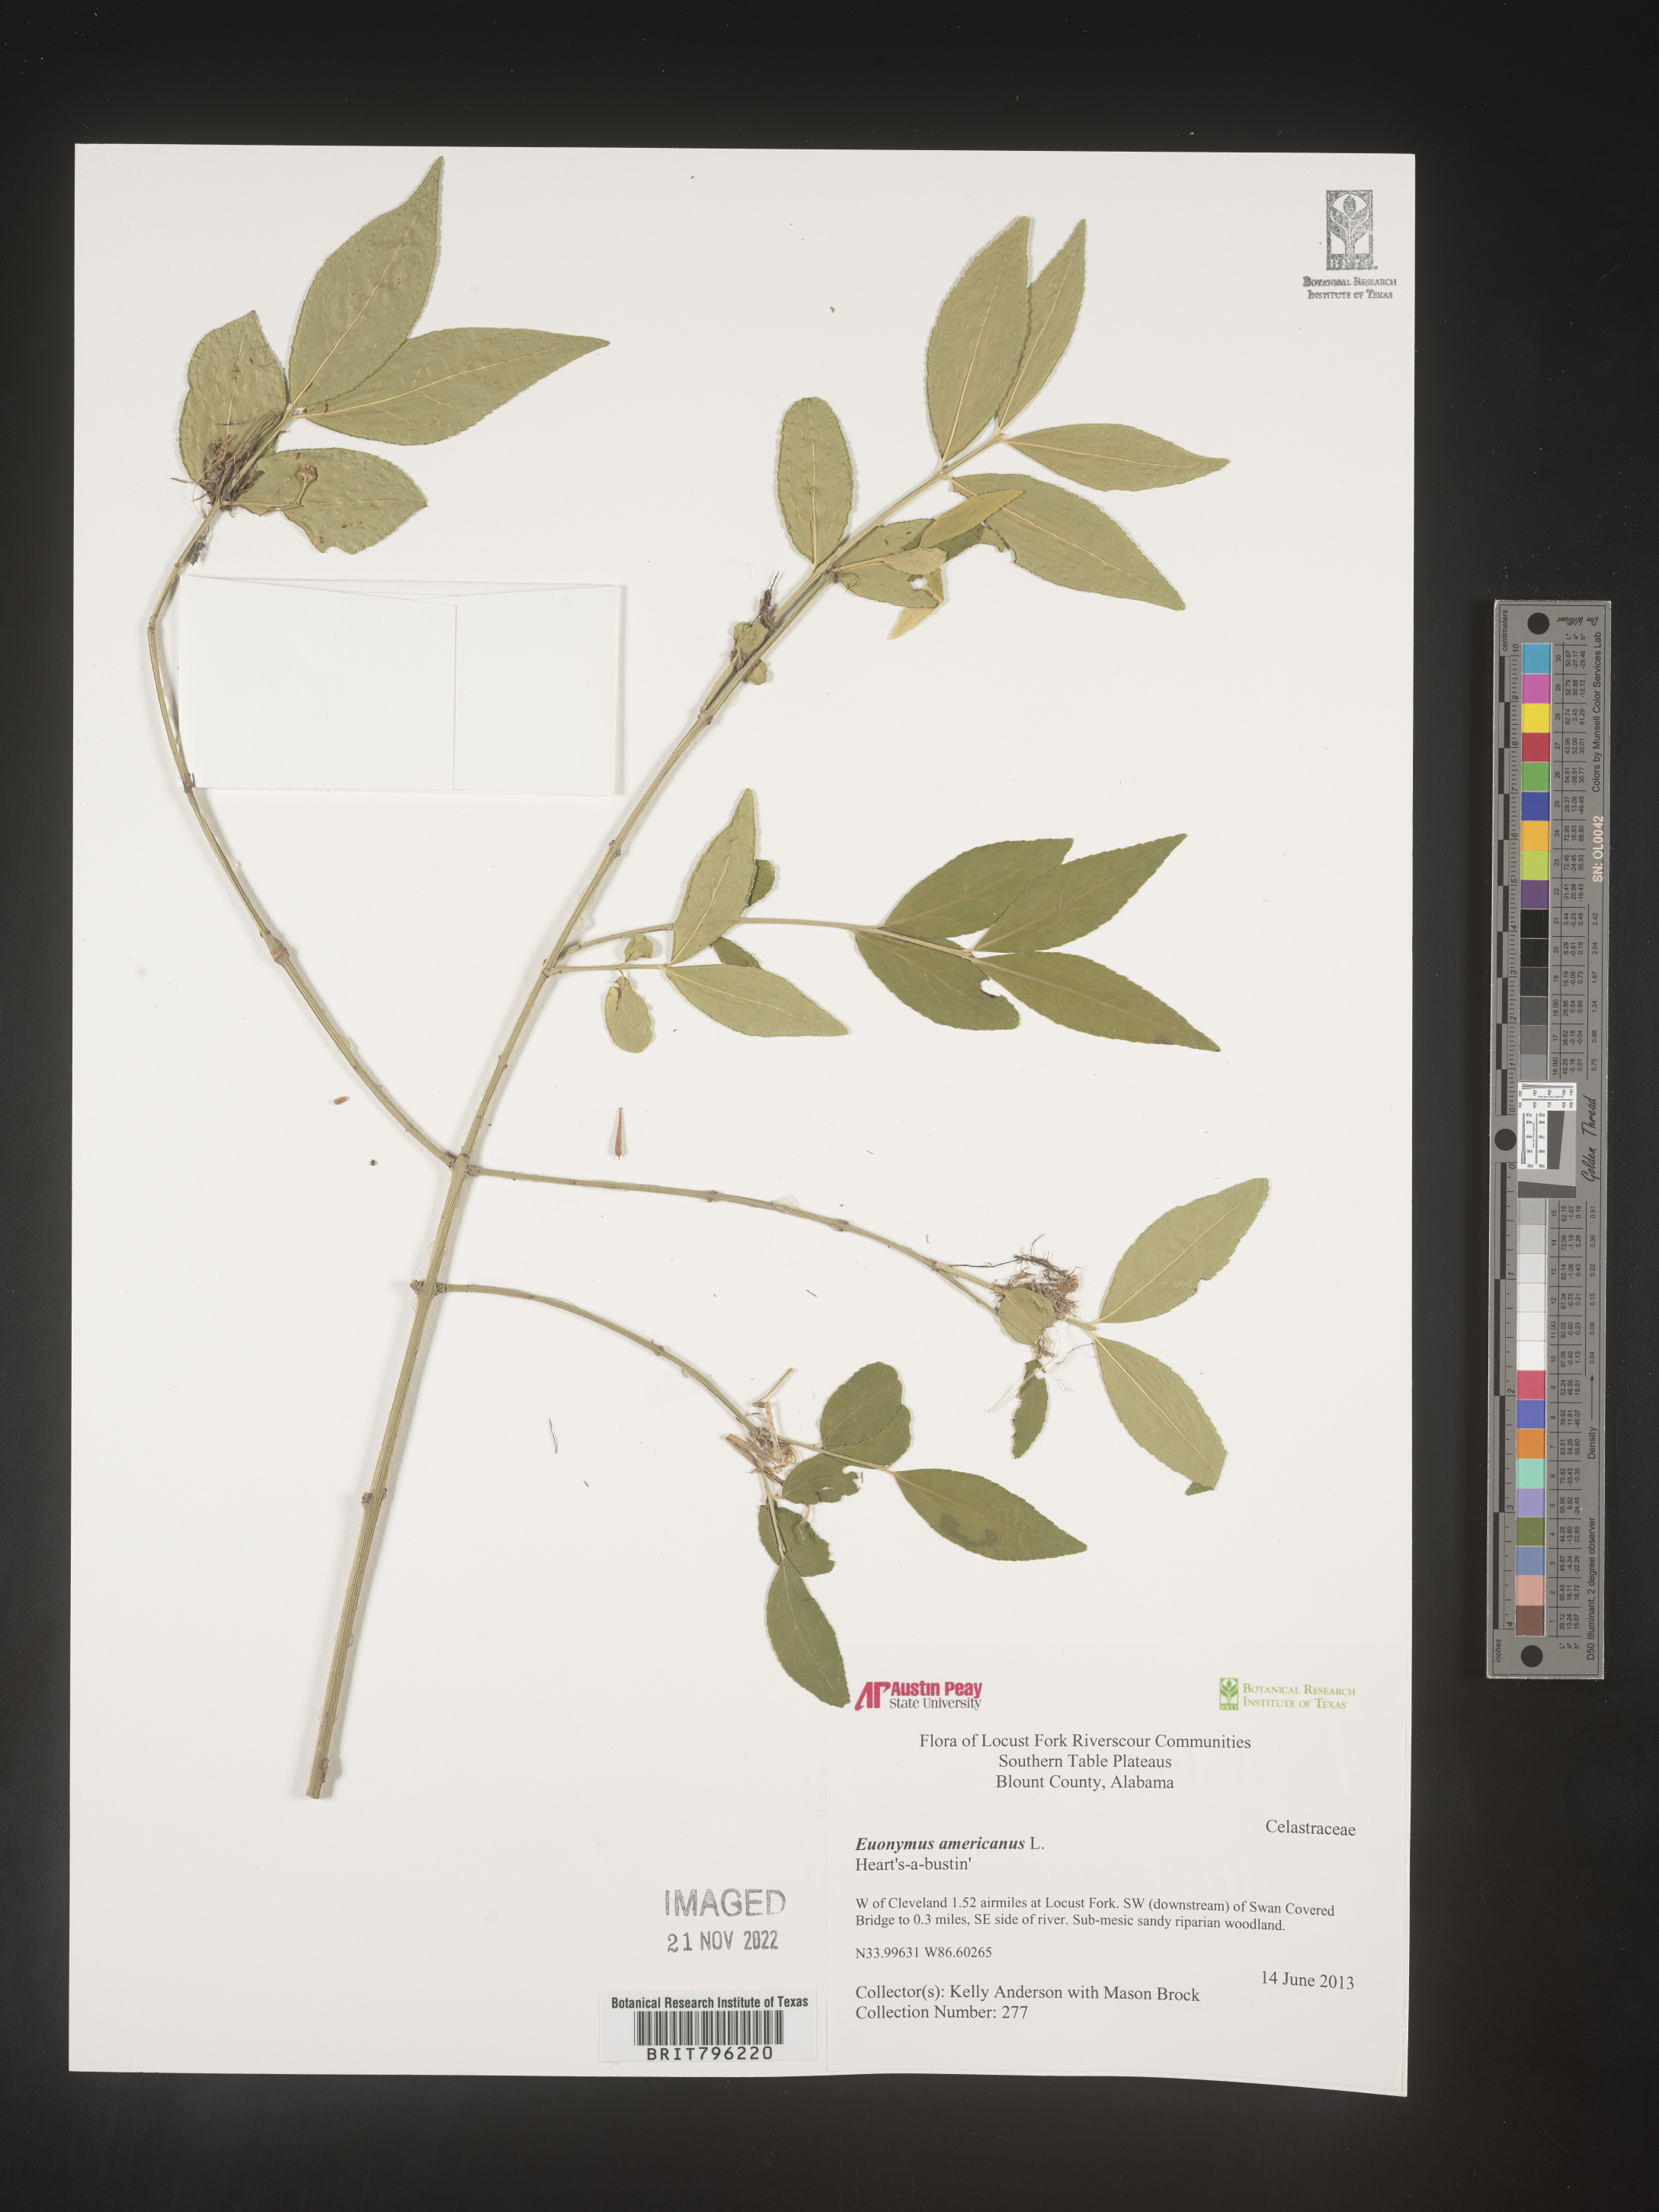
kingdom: Plantae
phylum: Tracheophyta
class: Magnoliopsida
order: Celastrales
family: Celastraceae
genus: Euonymus
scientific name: Euonymus americanus
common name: Bursting-heart
